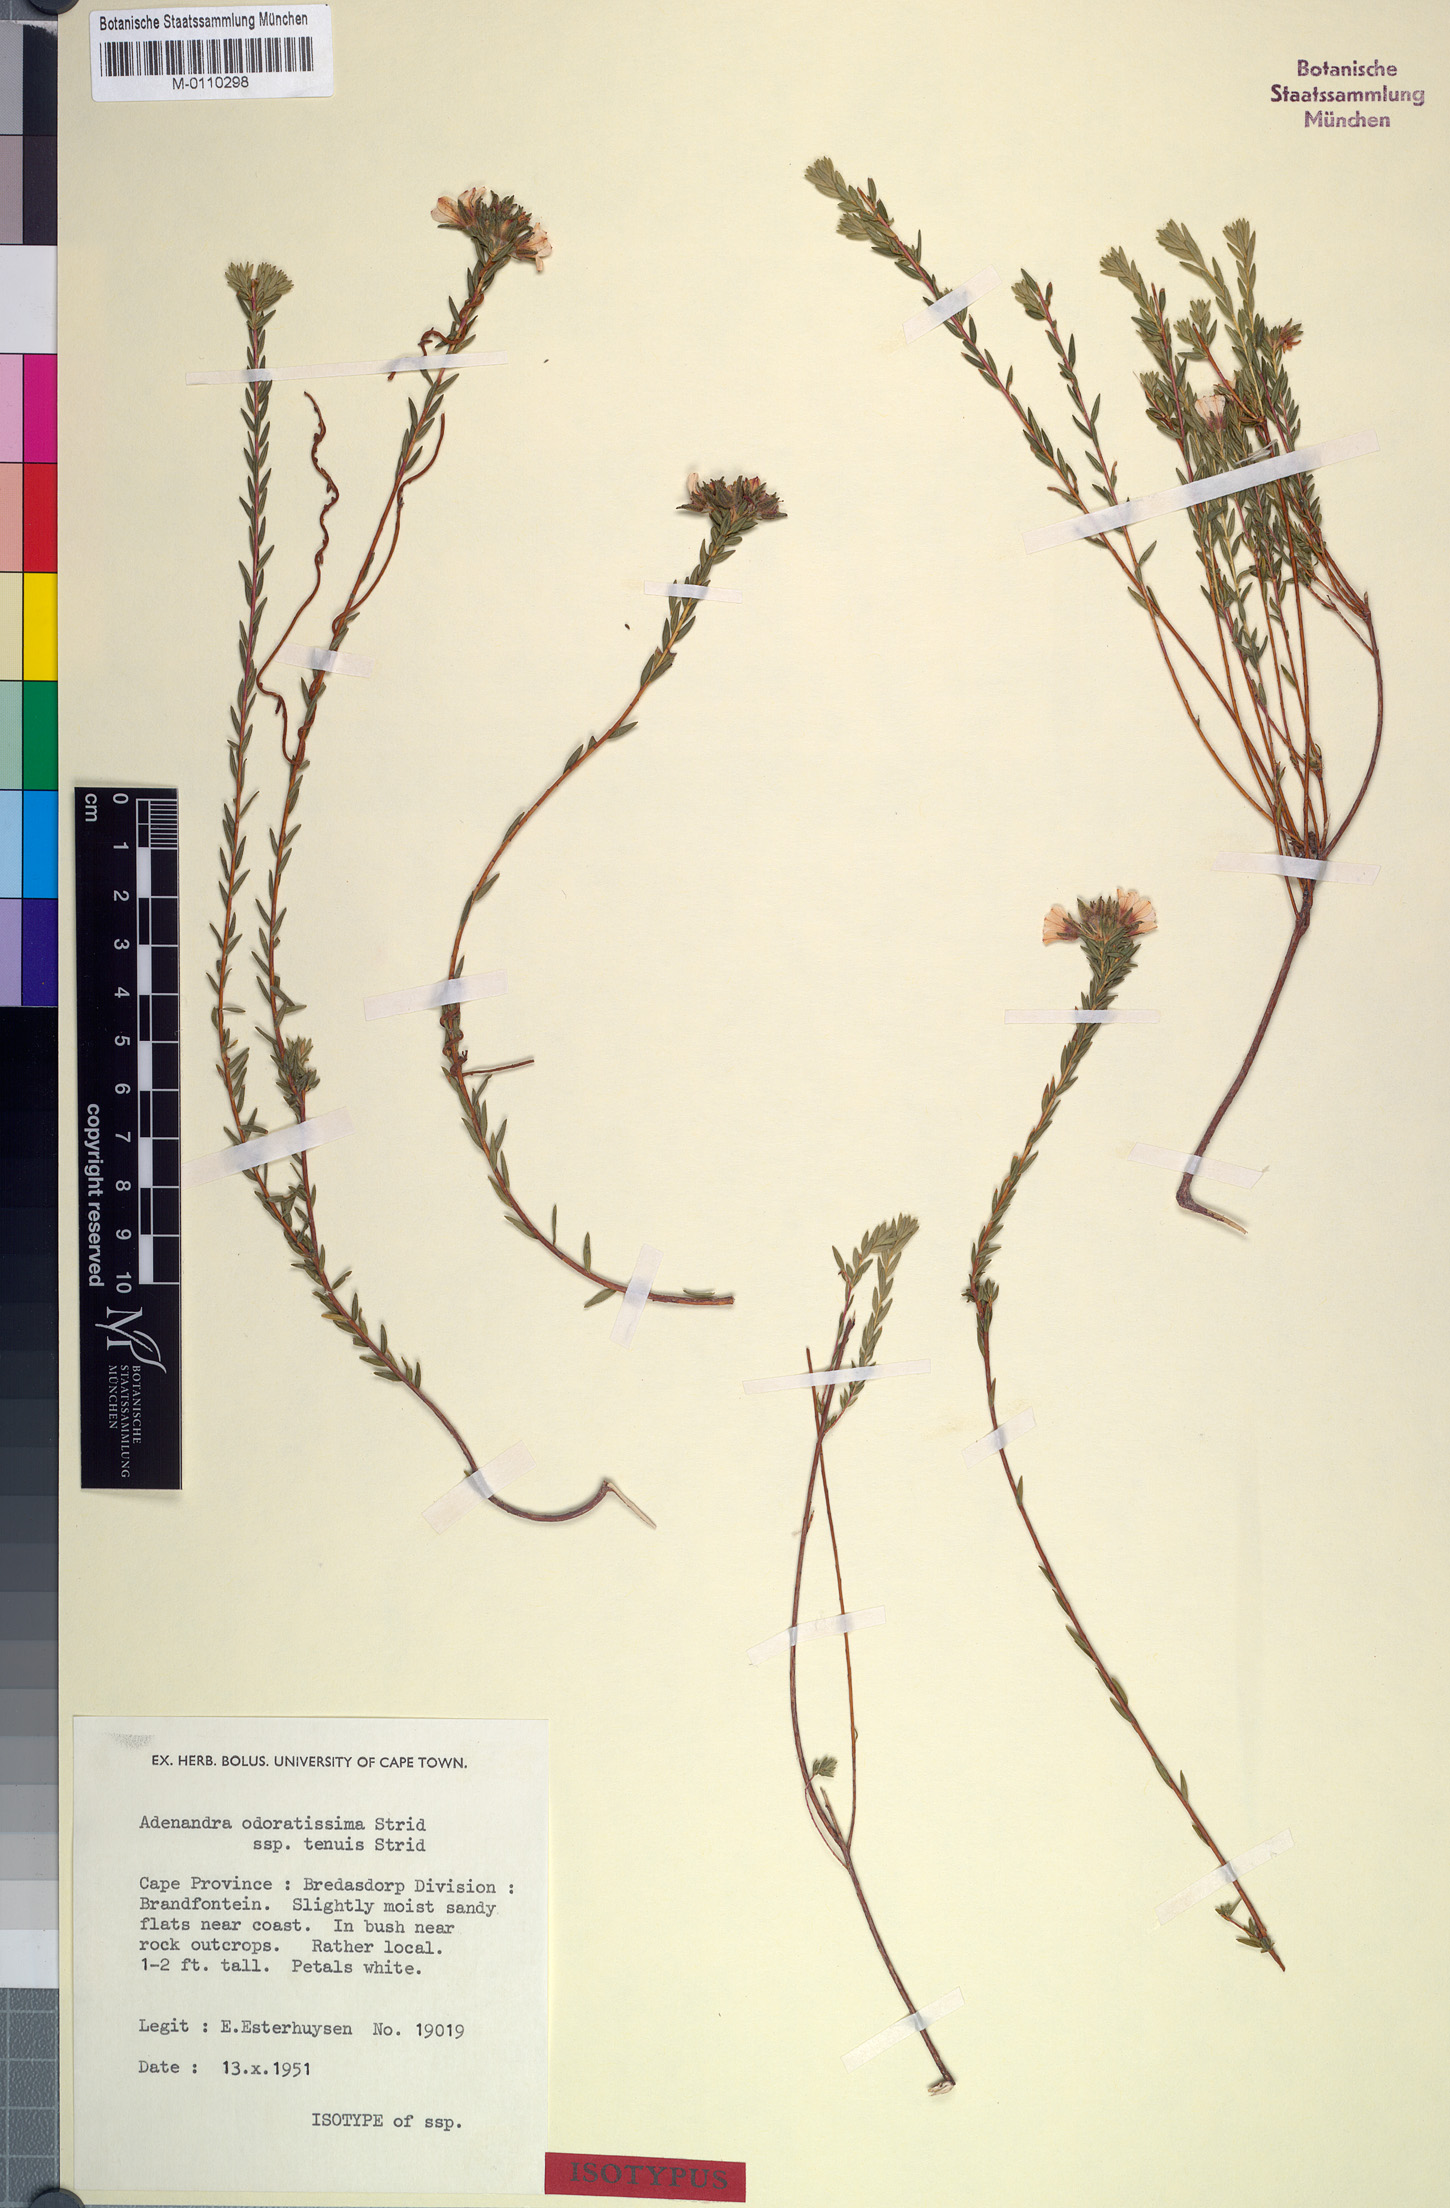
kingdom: Plantae
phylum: Tracheophyta
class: Magnoliopsida
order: Sapindales
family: Rutaceae
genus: Adenandra
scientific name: Adenandra odoratissima
